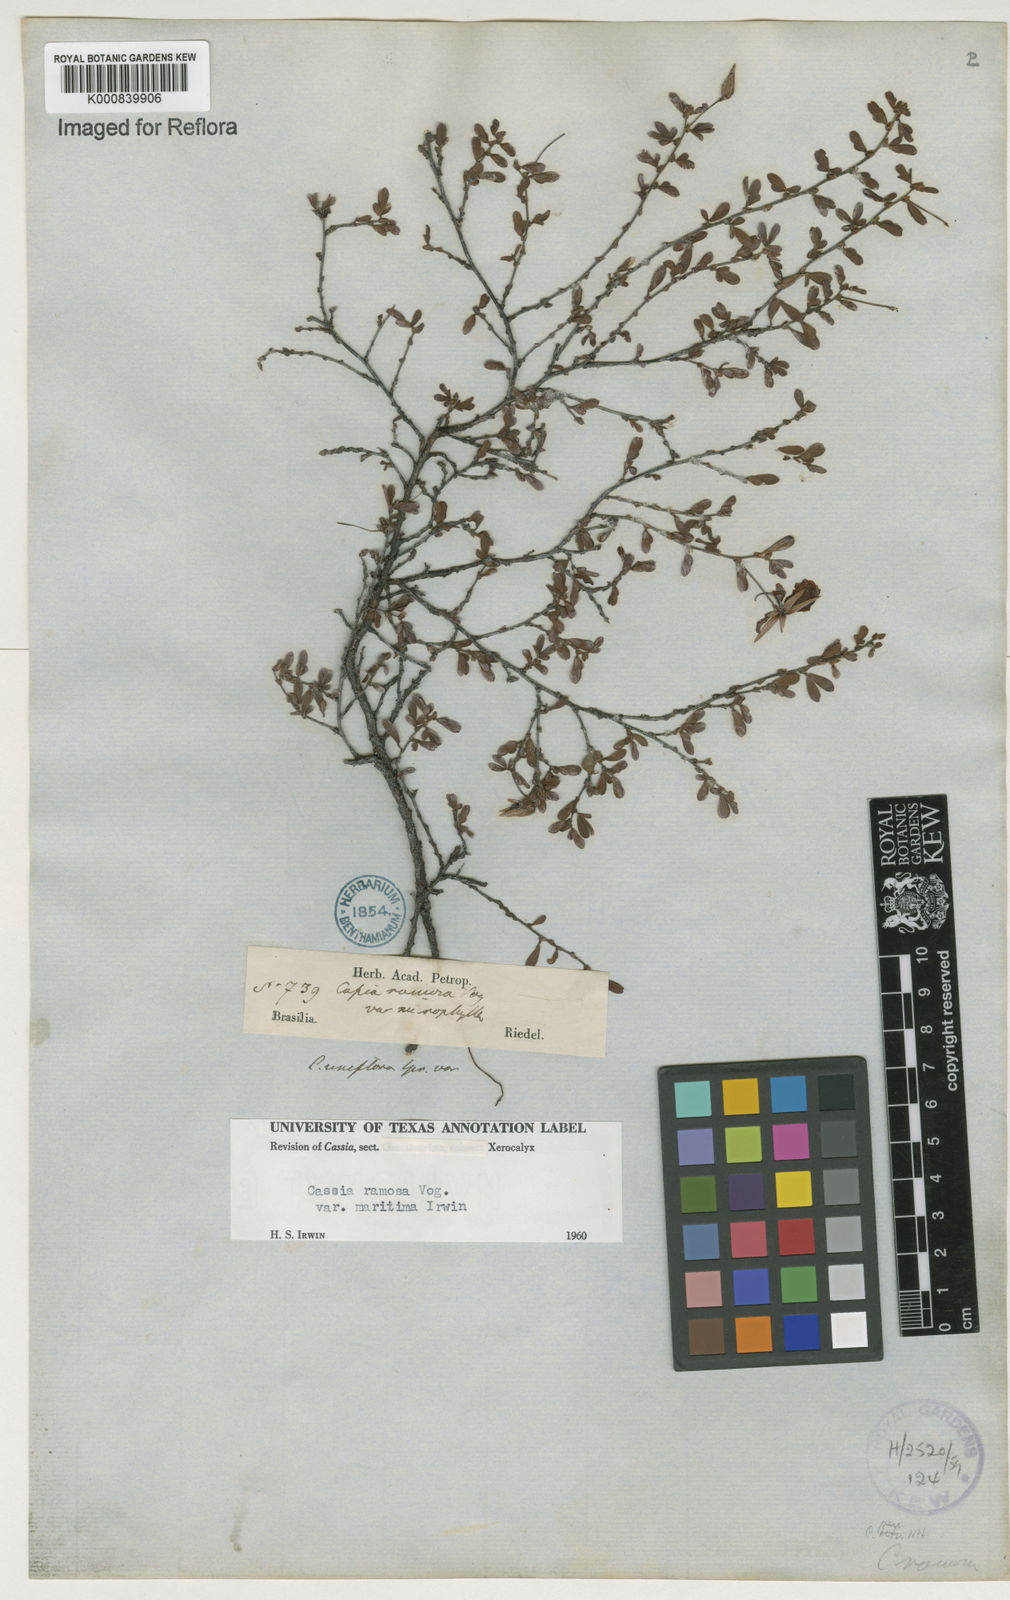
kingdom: Plantae
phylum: Tracheophyta
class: Magnoliopsida
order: Fabales
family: Fabaceae
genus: Chamaecrista
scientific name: Chamaecrista ramosa
